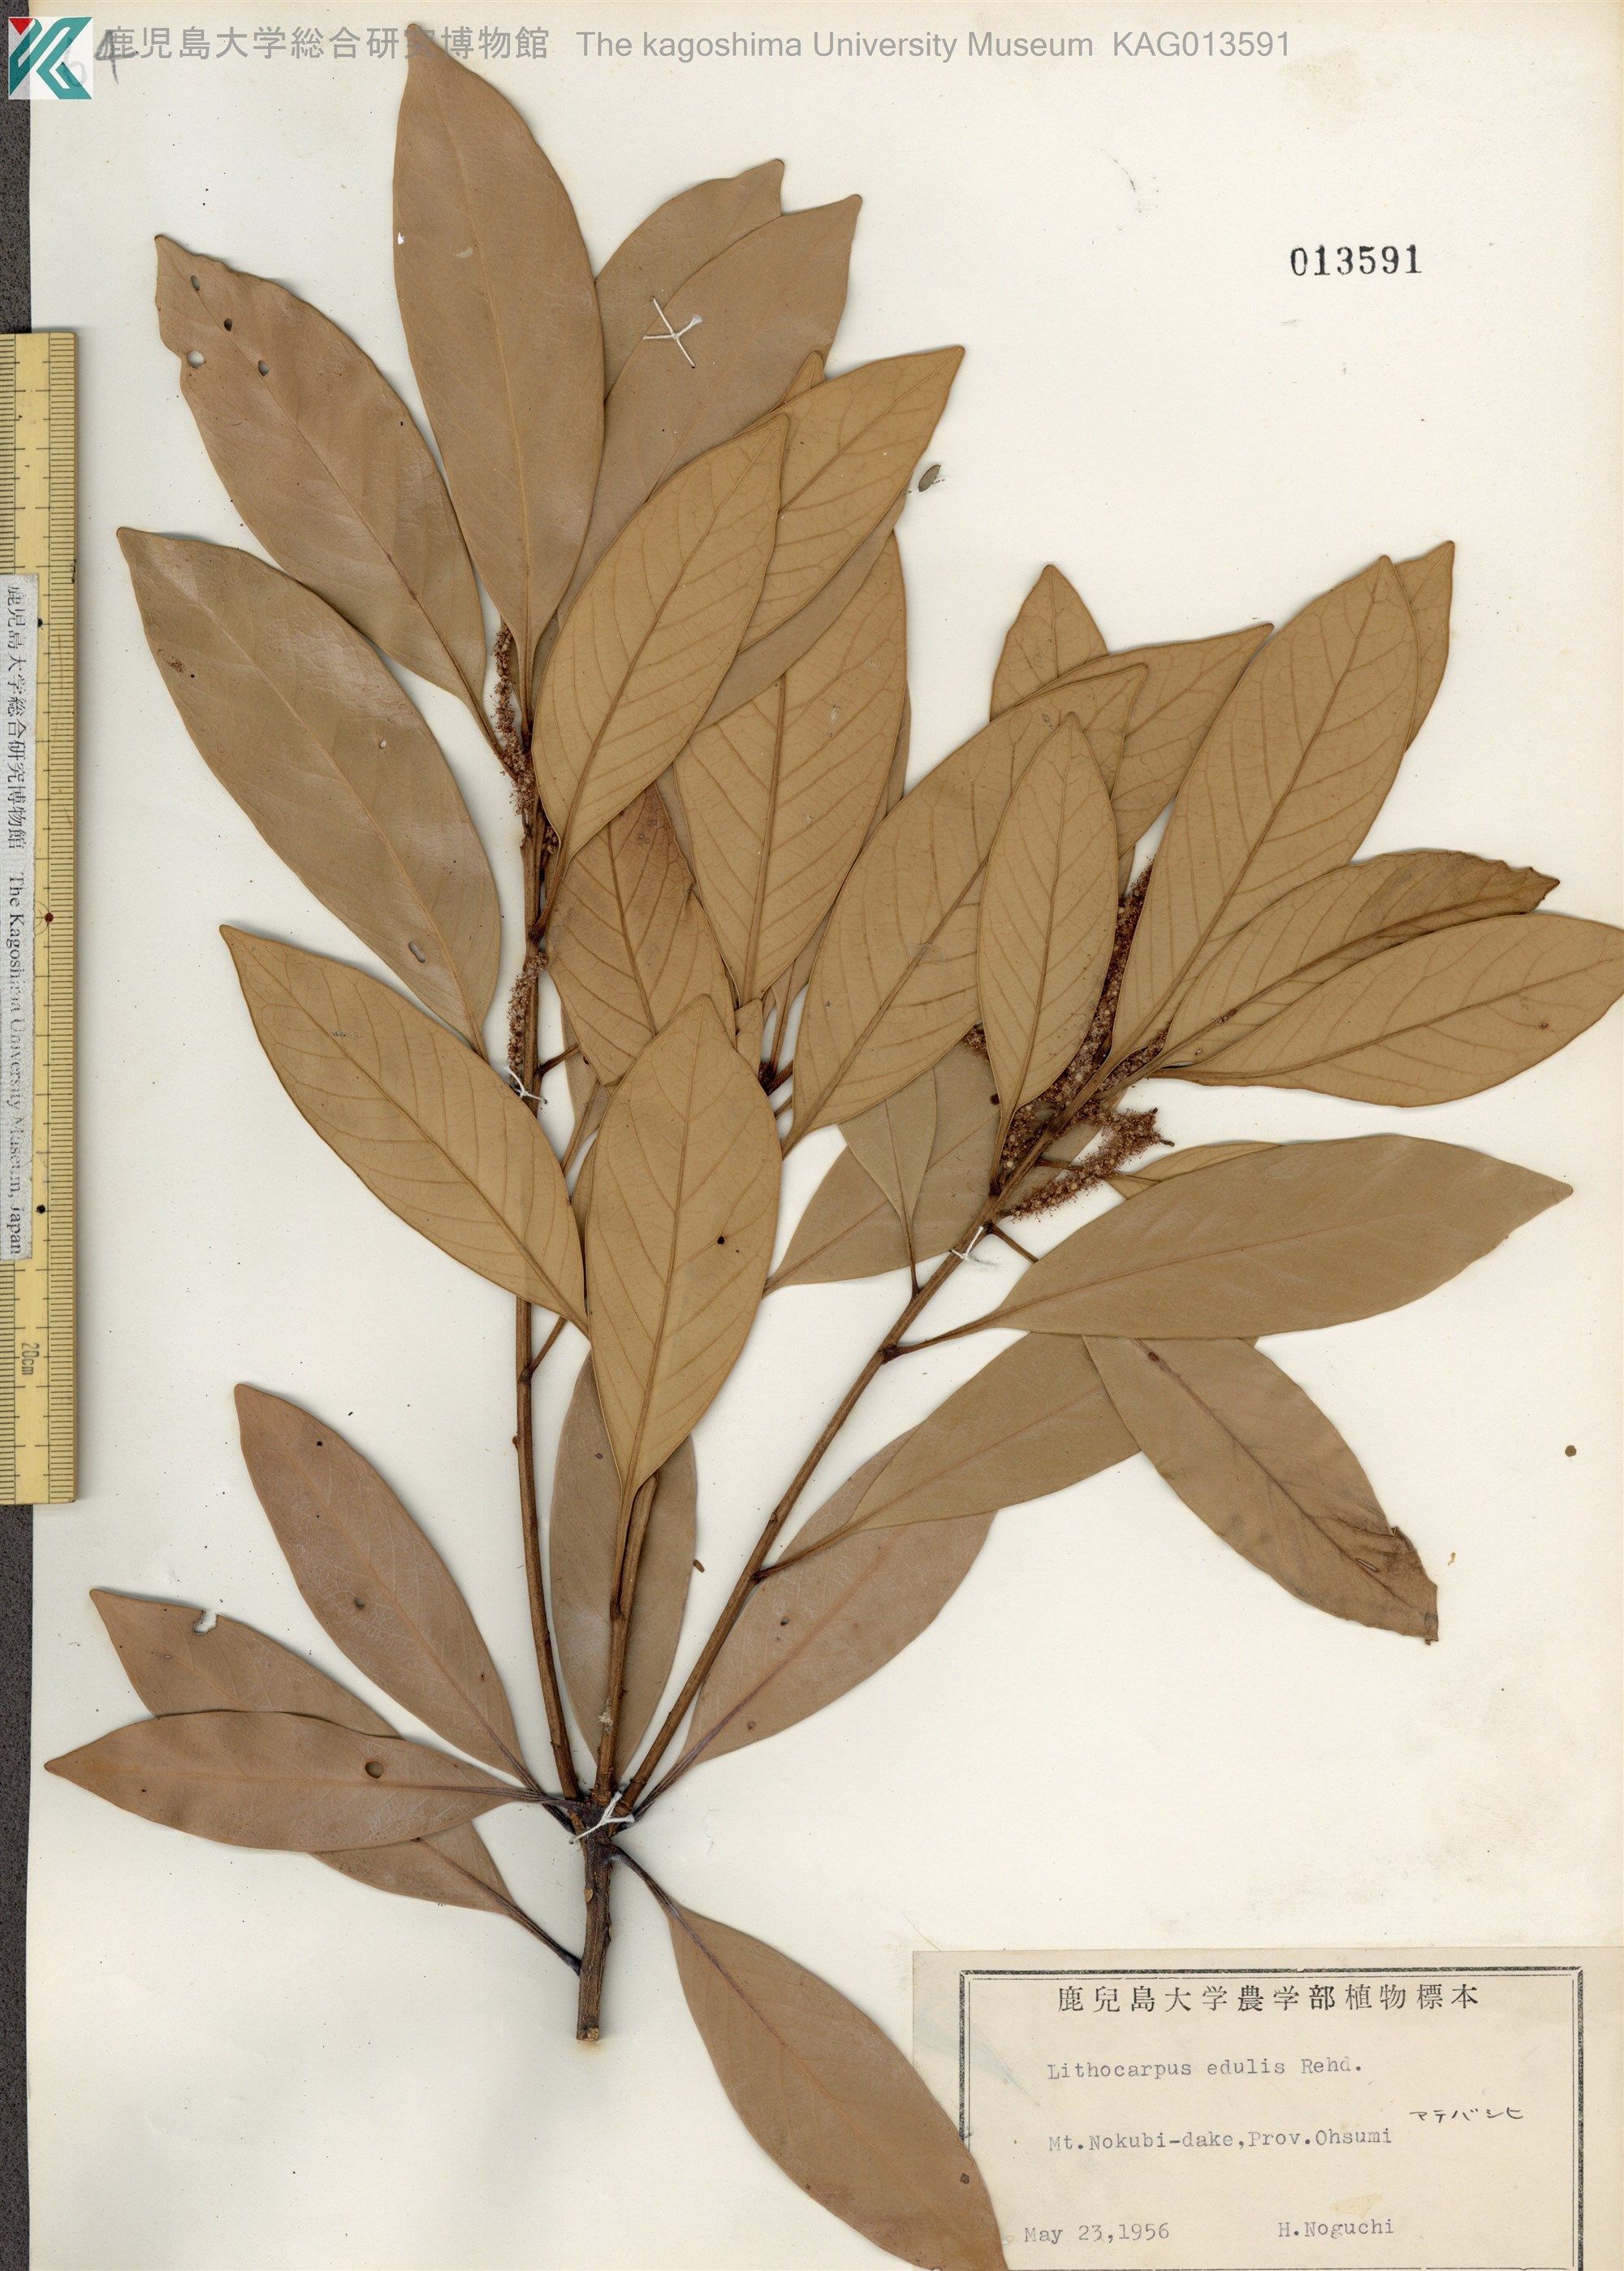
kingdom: Plantae
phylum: Tracheophyta
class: Magnoliopsida
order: Fagales
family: Fagaceae
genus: Lithocarpus
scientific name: Lithocarpus edulis
